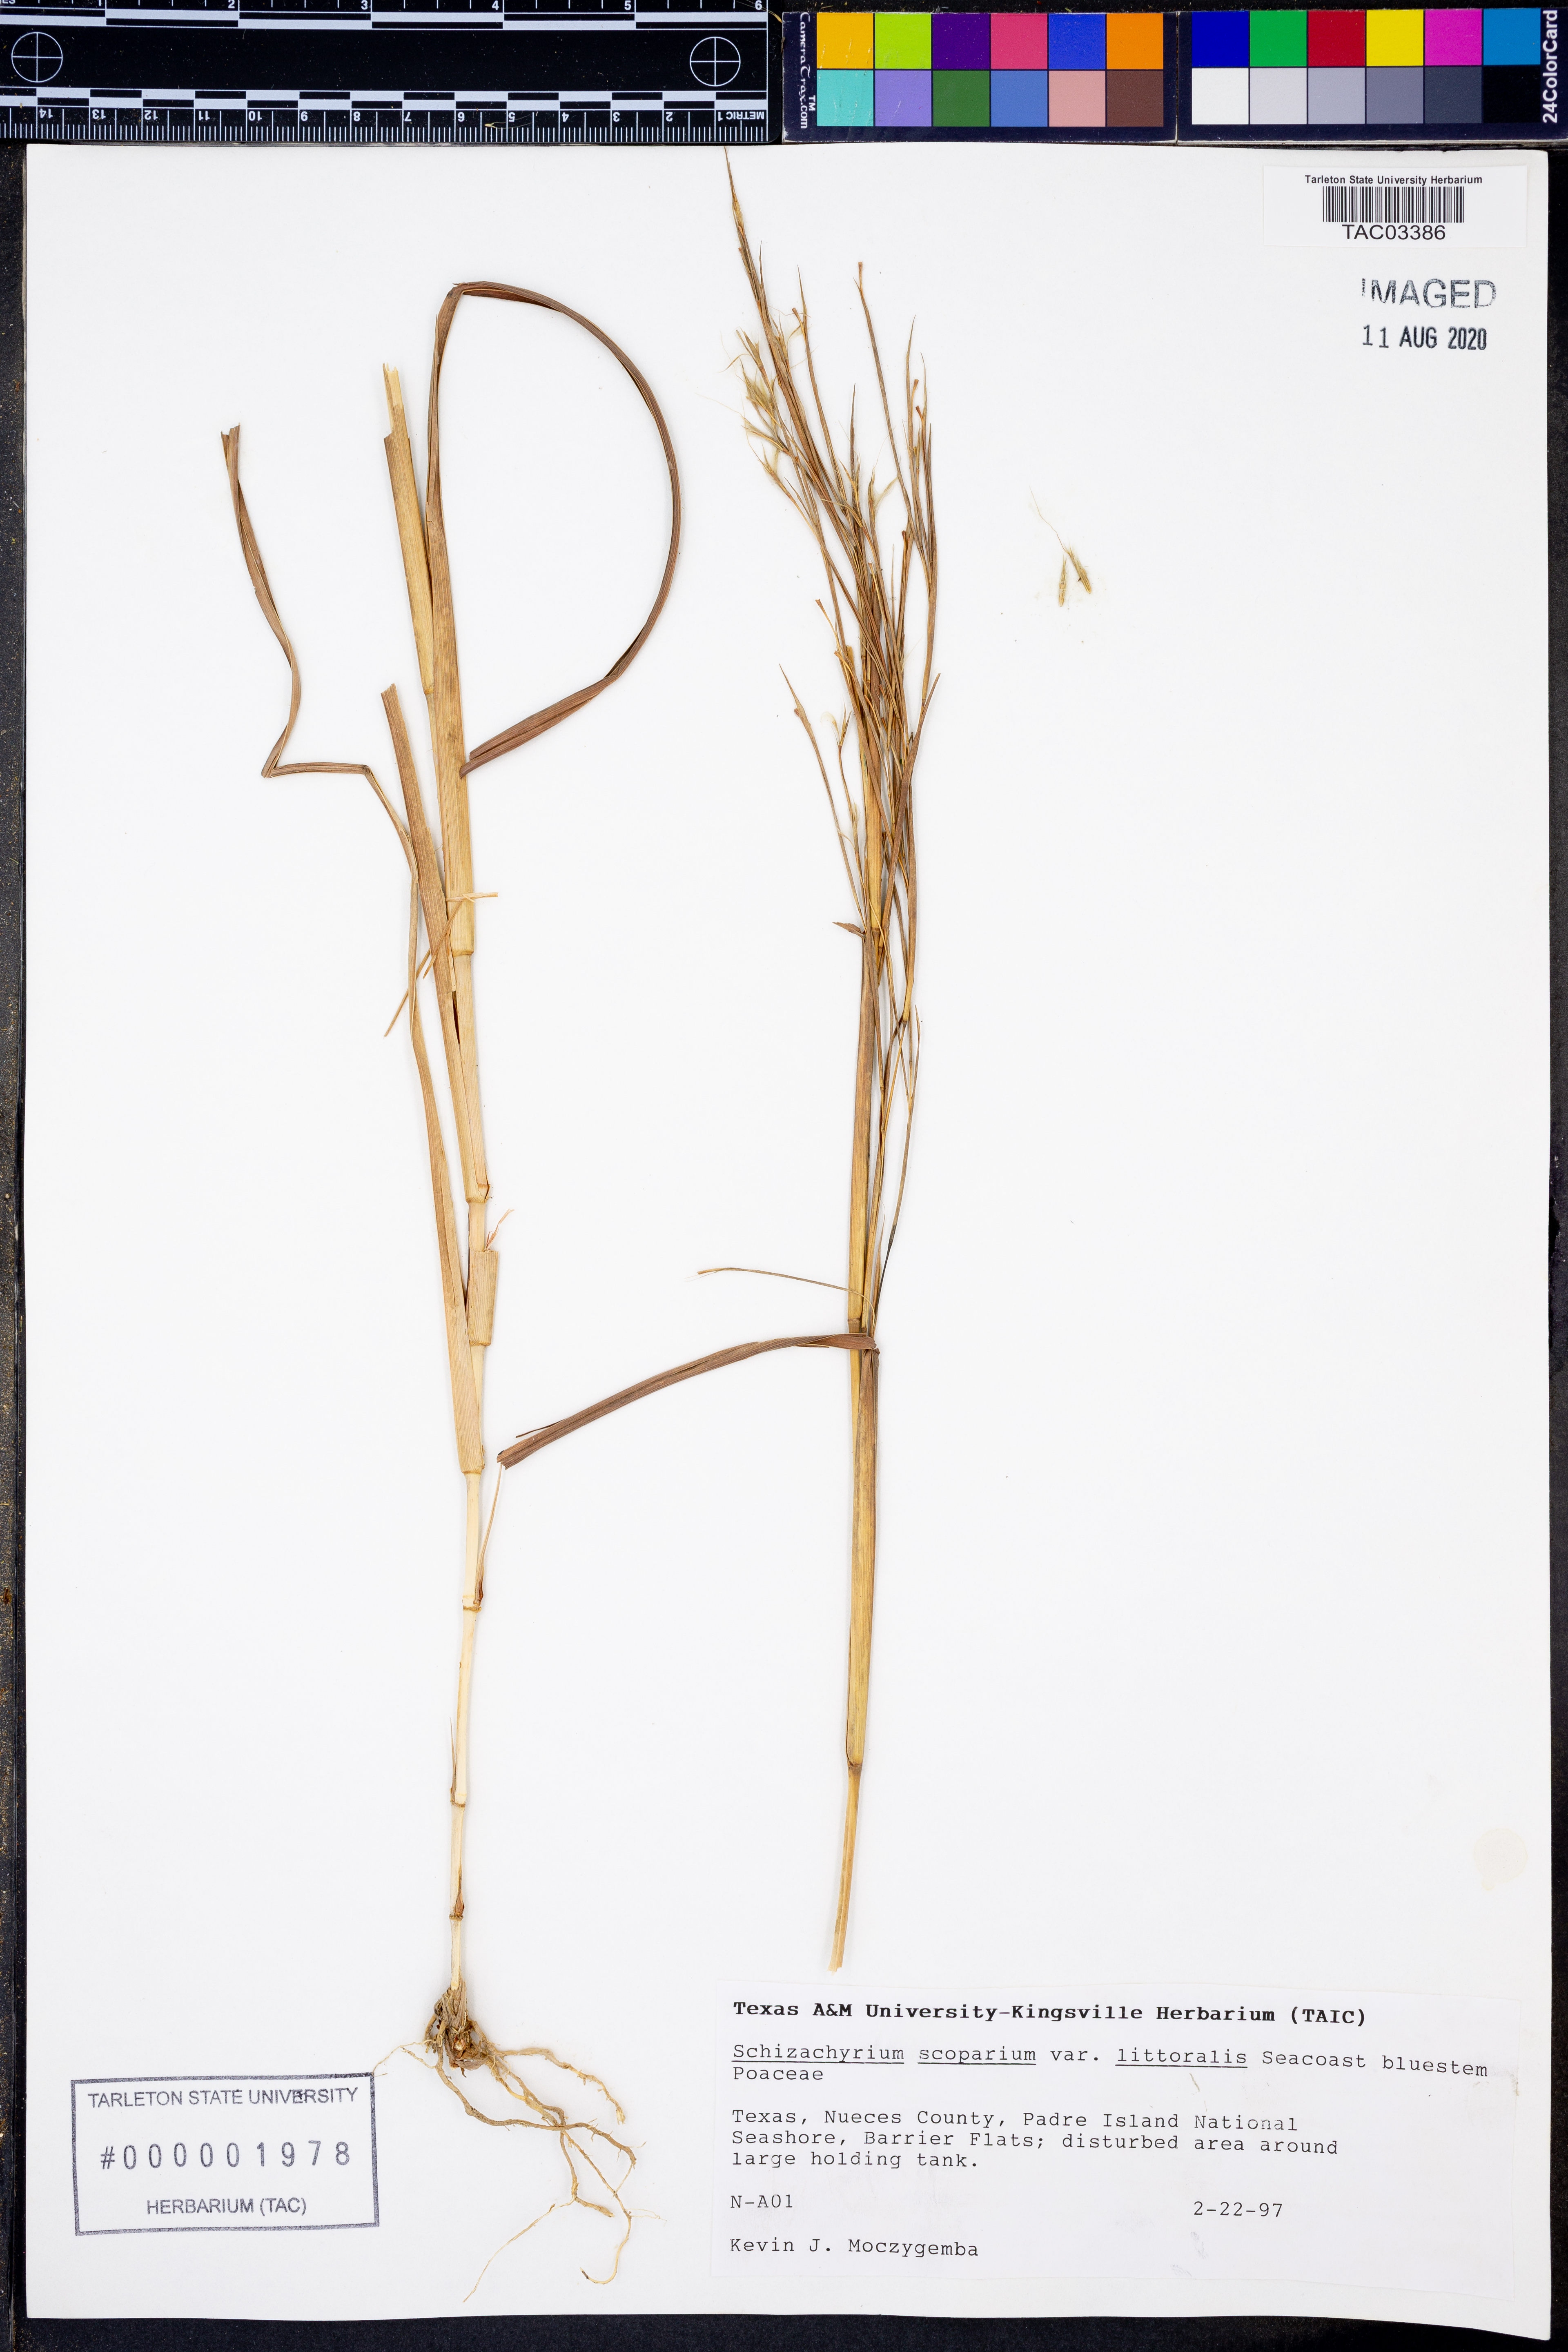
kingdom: Plantae
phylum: Tracheophyta
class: Liliopsida
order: Poales
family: Poaceae
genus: Schizachyrium
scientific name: Schizachyrium scoparium
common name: Little bluestem
